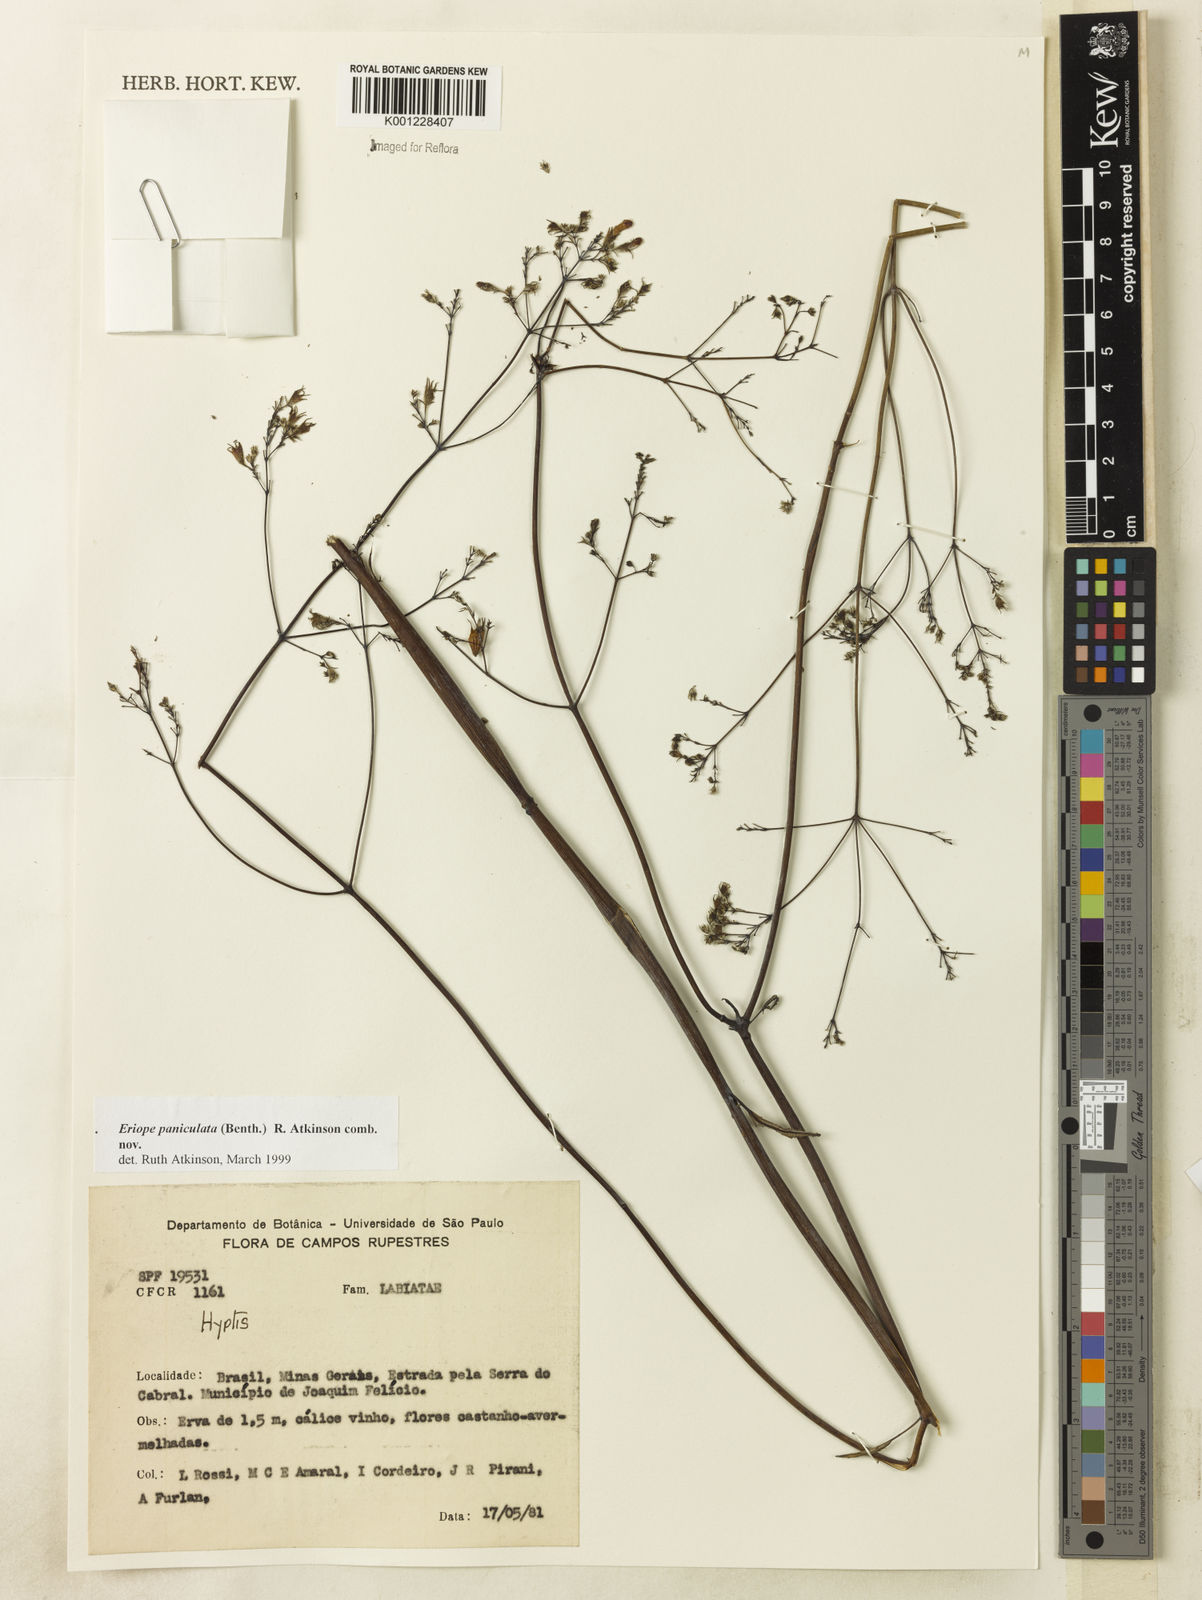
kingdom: Plantae
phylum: Tracheophyta
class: Magnoliopsida
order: Lamiales
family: Lamiaceae
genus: Hypenia
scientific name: Hypenia paniculata
